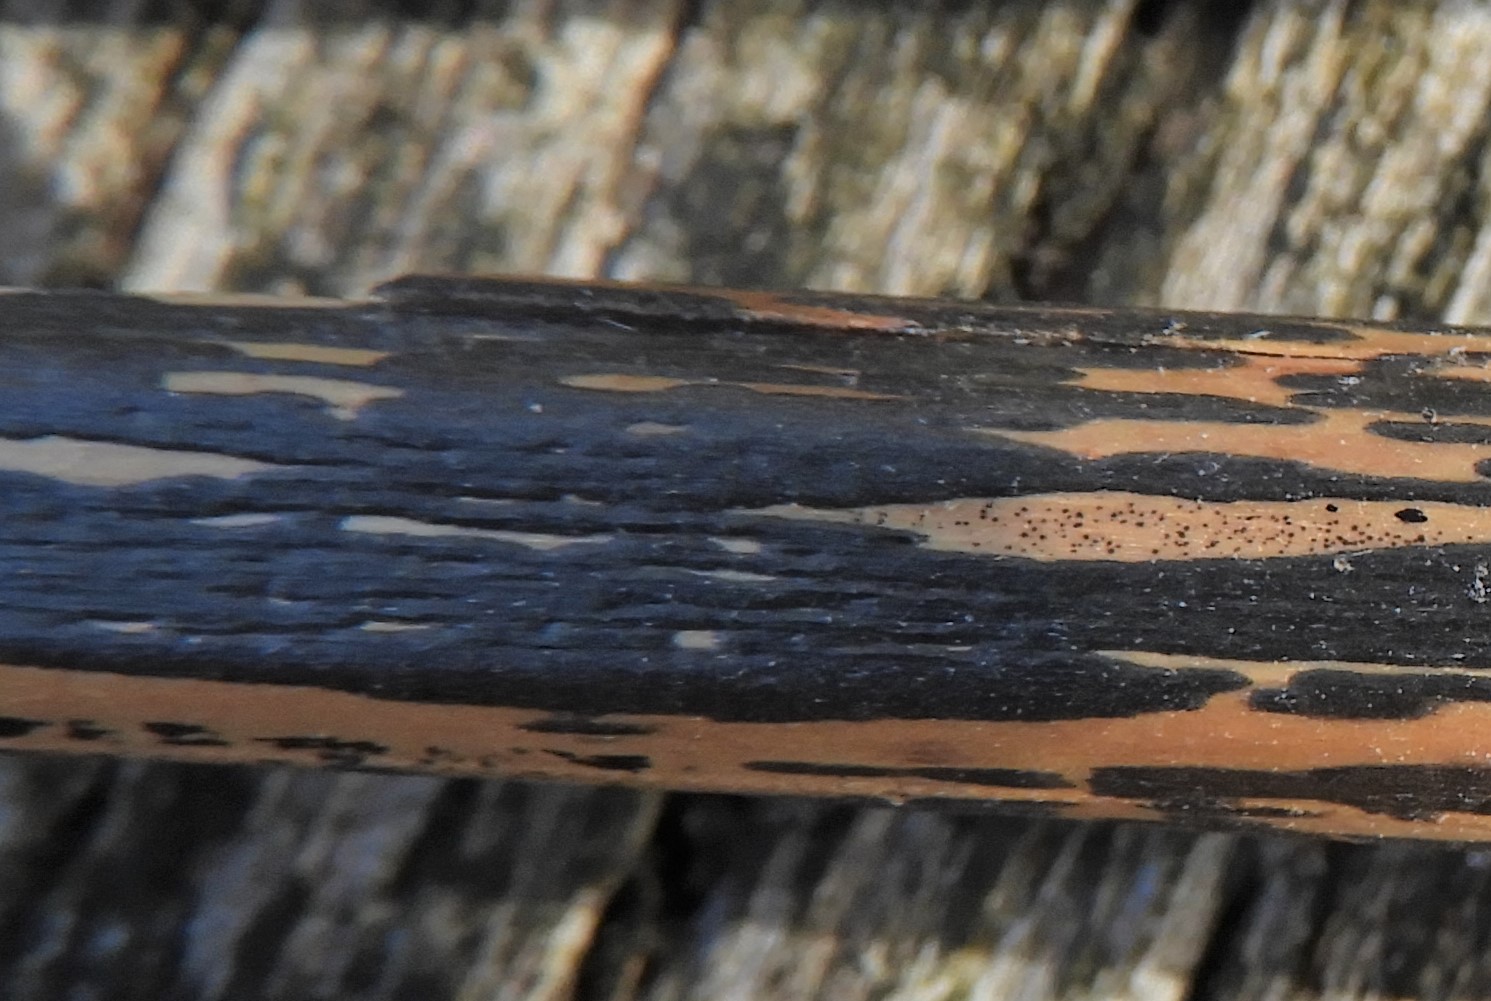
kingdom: Fungi
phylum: Ascomycota
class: Dothideomycetes
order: Pleosporales
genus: Rhopographus
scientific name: Rhopographus filicinus
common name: Bracken map
